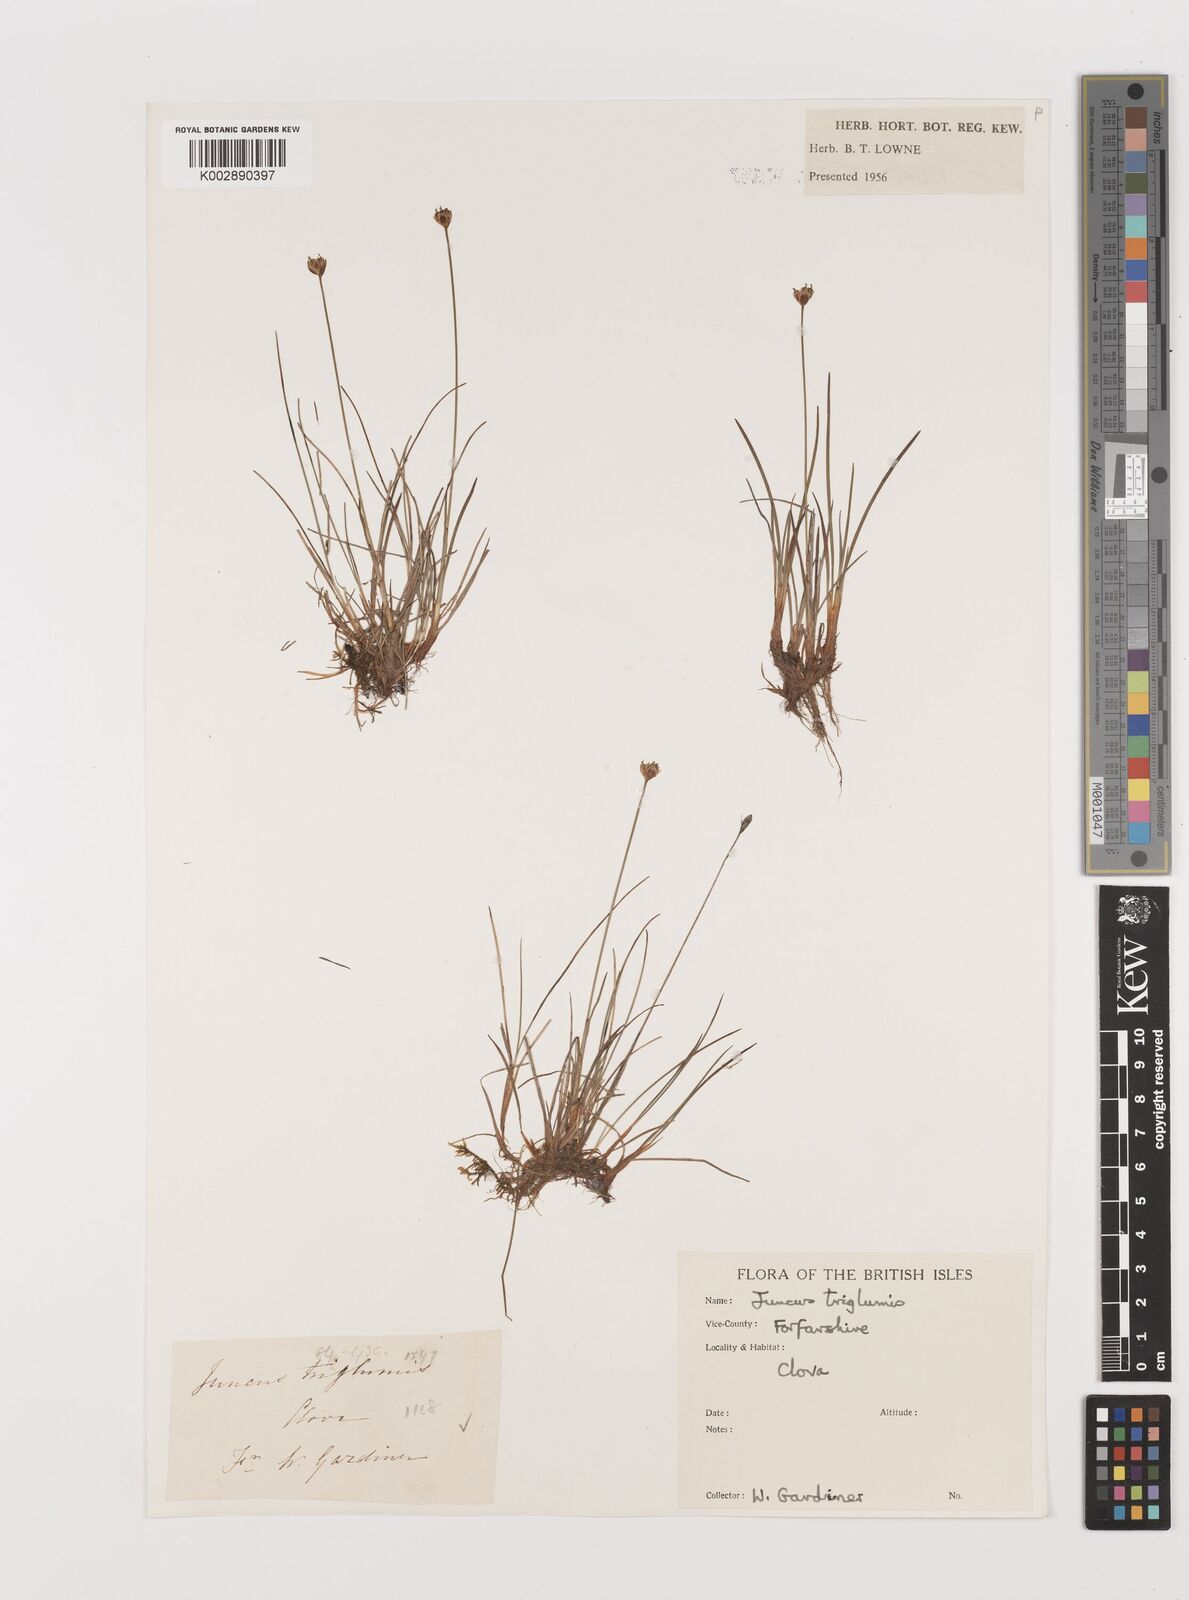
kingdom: Plantae
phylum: Tracheophyta
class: Liliopsida
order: Poales
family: Juncaceae
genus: Juncus
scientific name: Juncus triglumis
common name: Three-flowered rush
